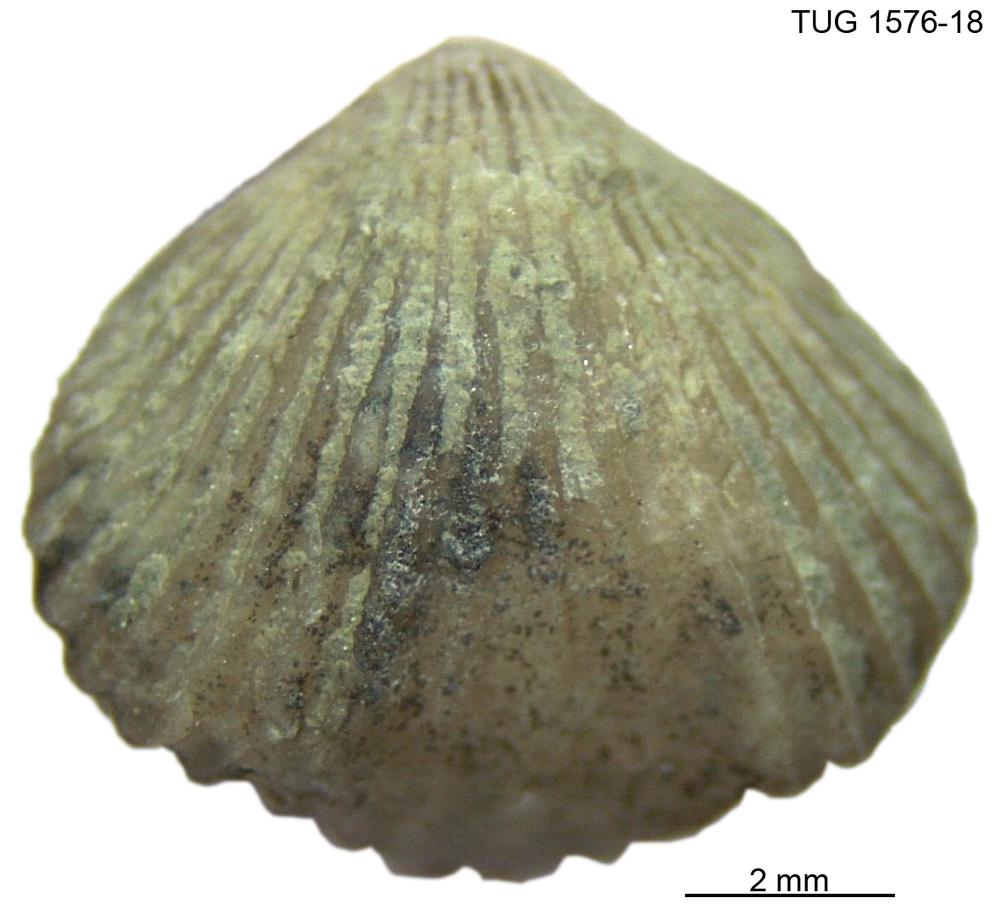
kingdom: Animalia
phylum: Brachiopoda
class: Rhynchonellata
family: Rhynchospirinidae
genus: Homoeospira
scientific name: Homoeospira Terebratula baylei
